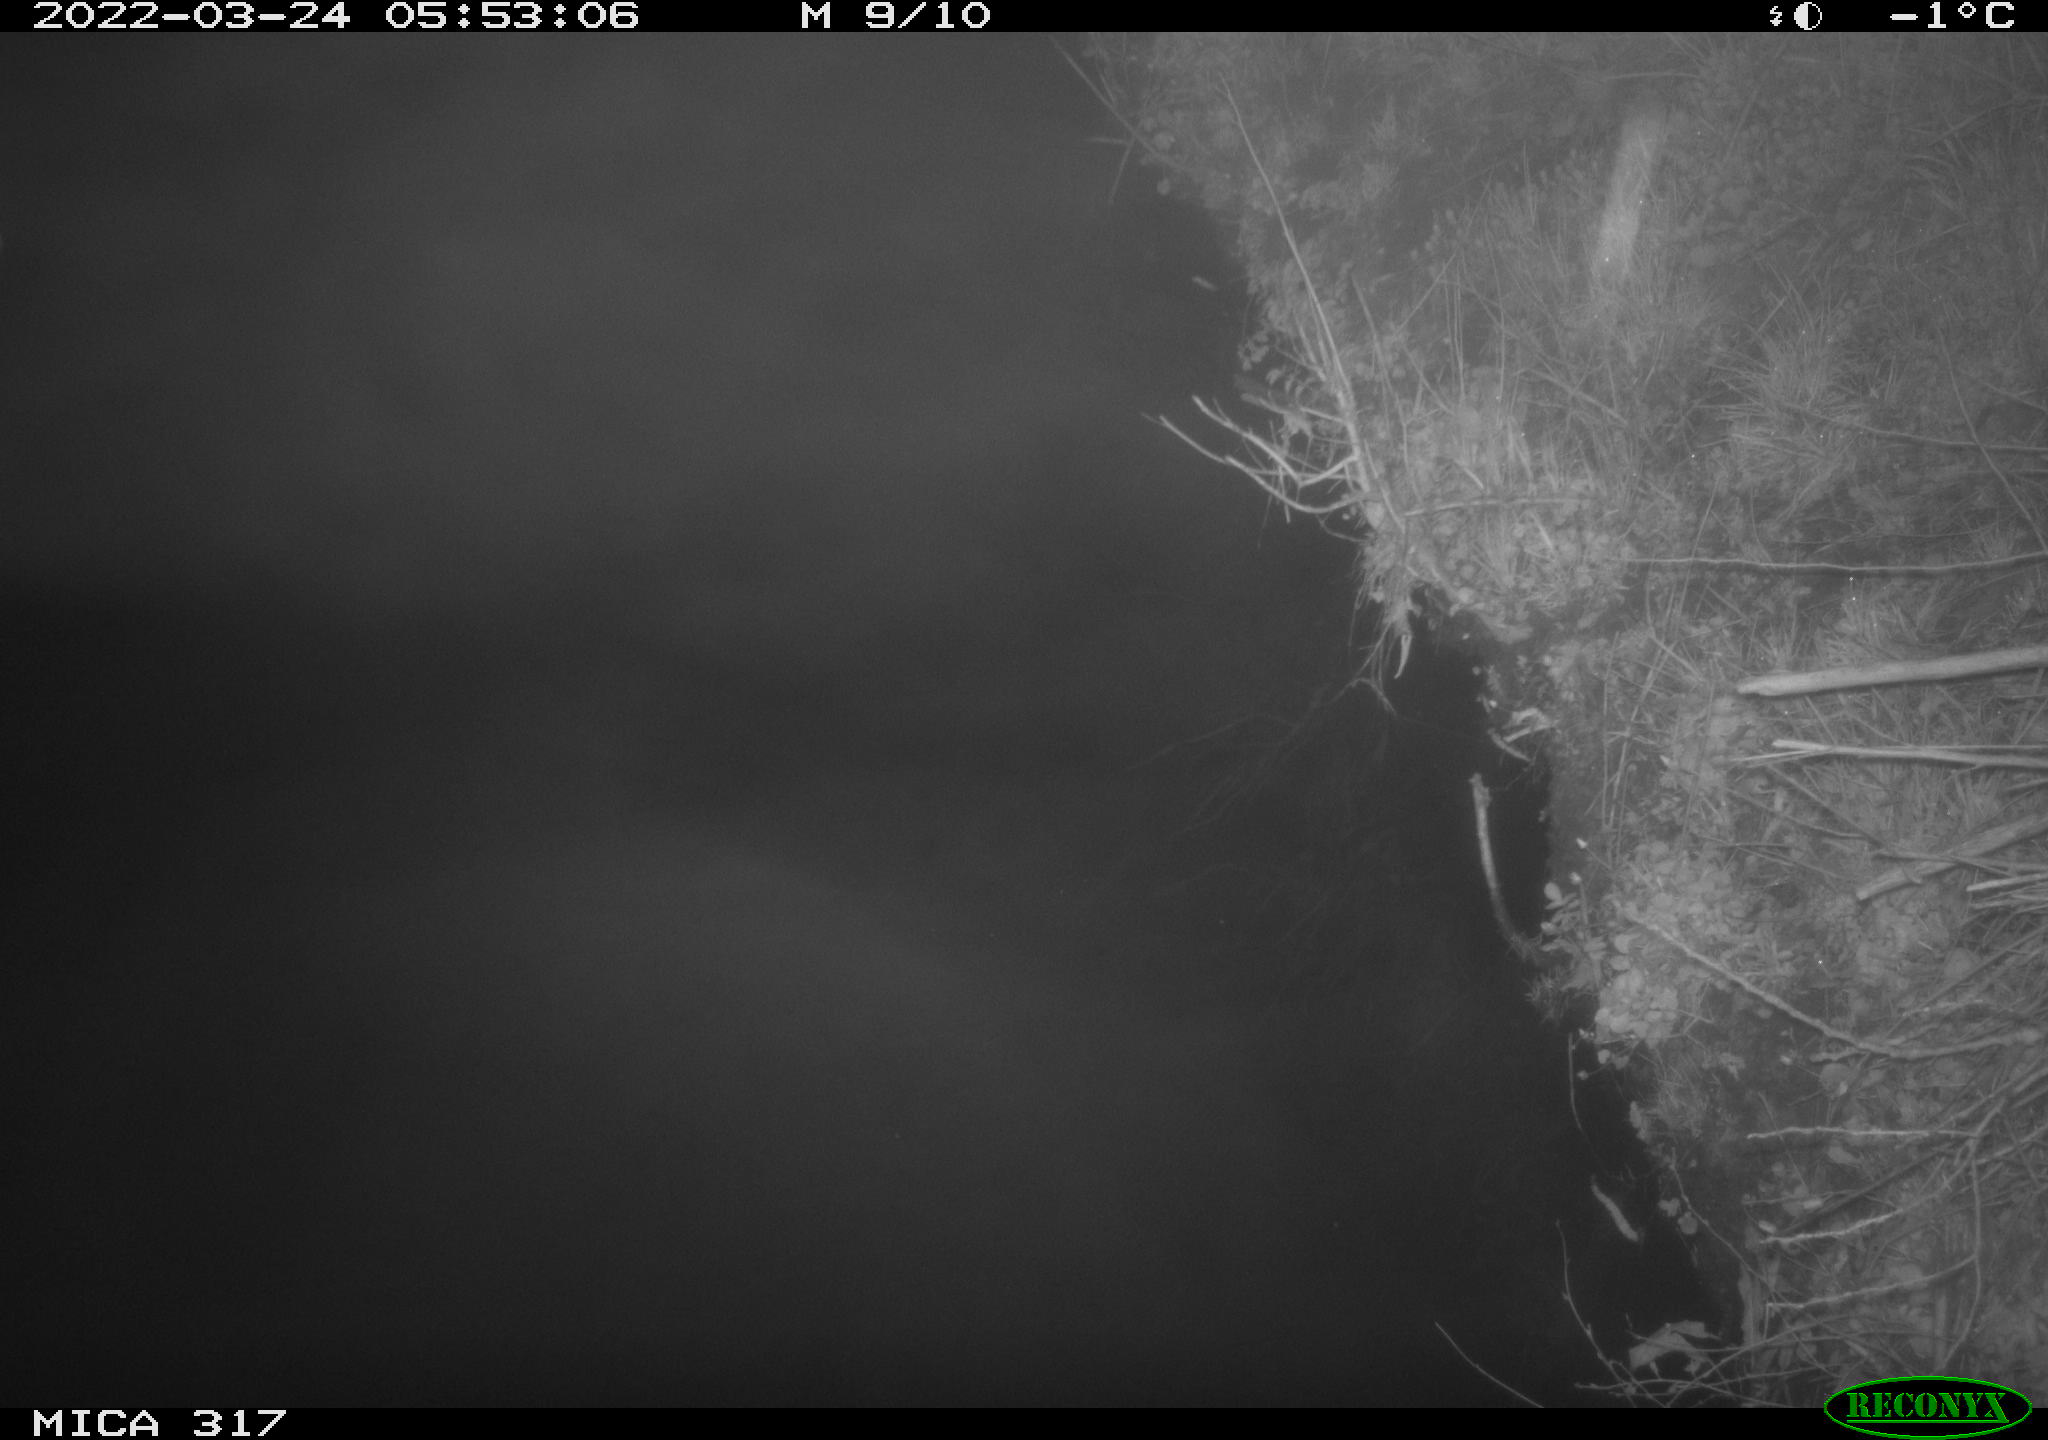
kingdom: Animalia
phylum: Chordata
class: Aves
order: Anseriformes
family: Anatidae
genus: Anas
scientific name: Anas platyrhynchos
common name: Mallard
